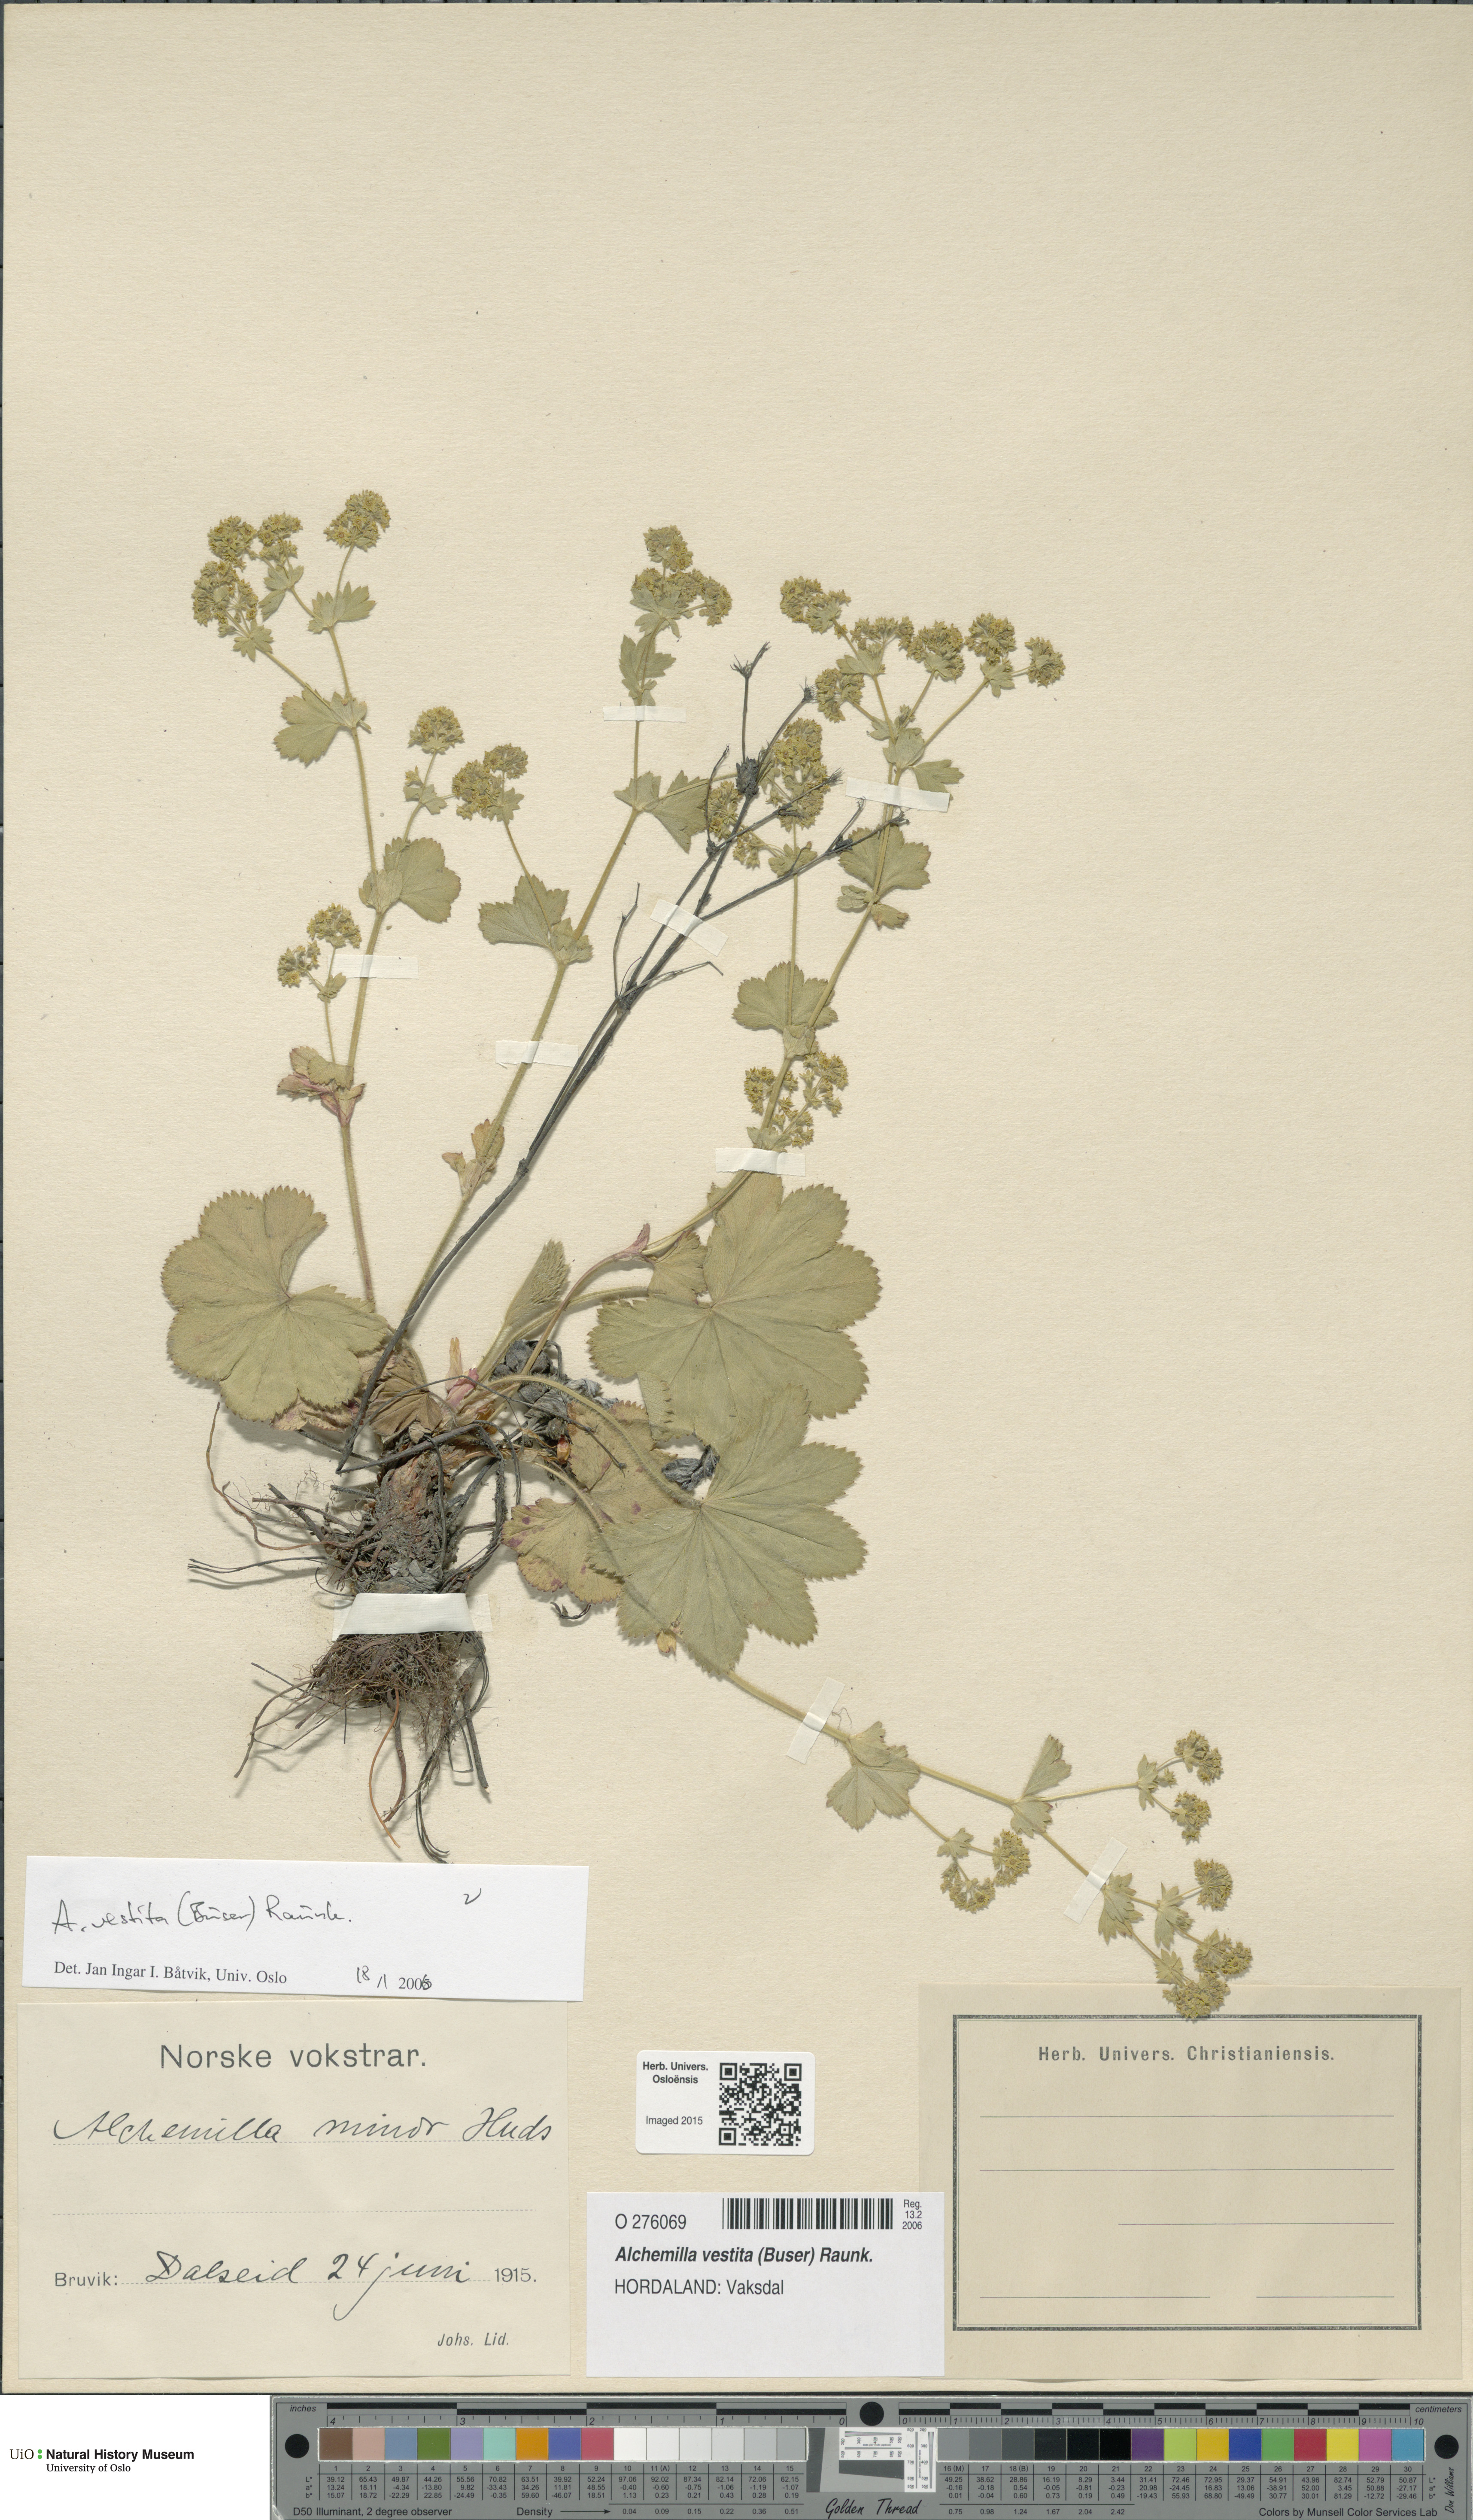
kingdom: Plantae
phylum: Tracheophyta
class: Magnoliopsida
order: Rosales
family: Rosaceae
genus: Alchemilla
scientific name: Alchemilla filicaulis
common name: Hairy lady's-mantle
